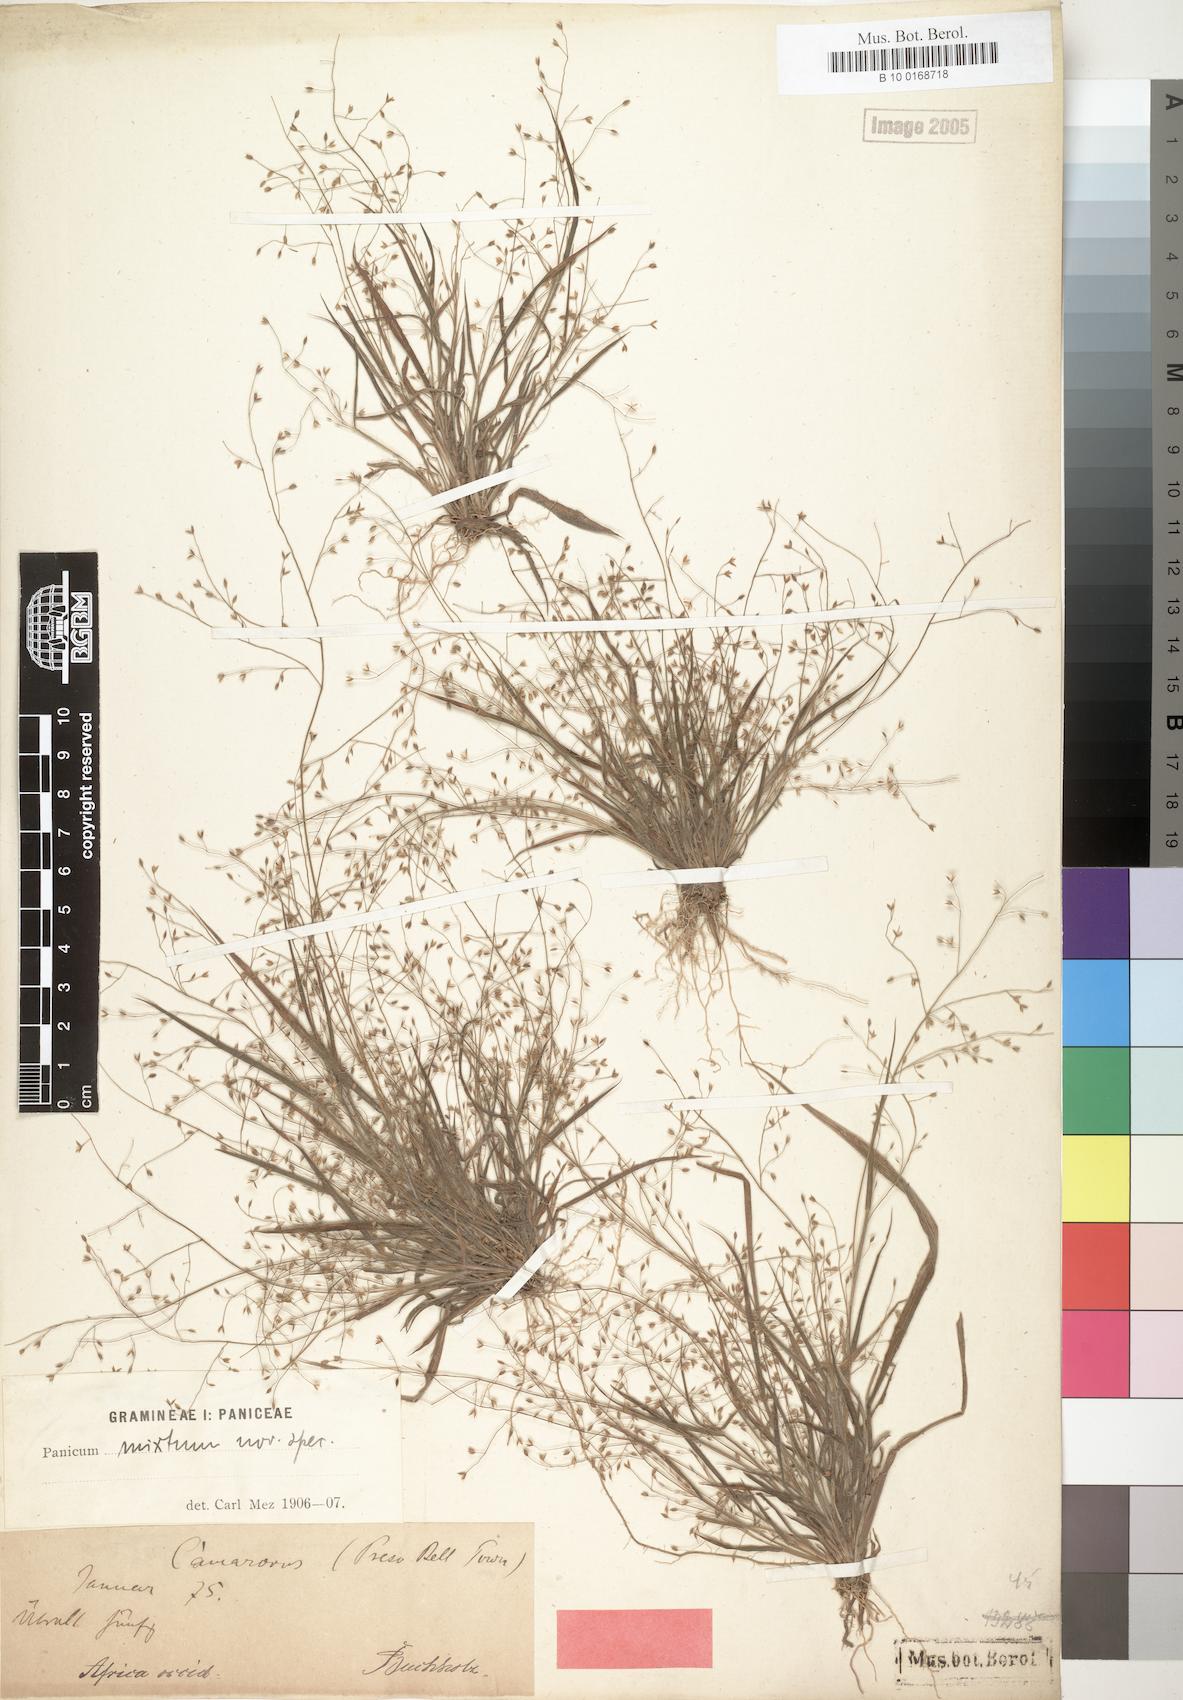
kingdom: Plantae
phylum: Tracheophyta
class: Liliopsida
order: Poales
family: Poaceae
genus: Panicum
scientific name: Panicum griffonii
